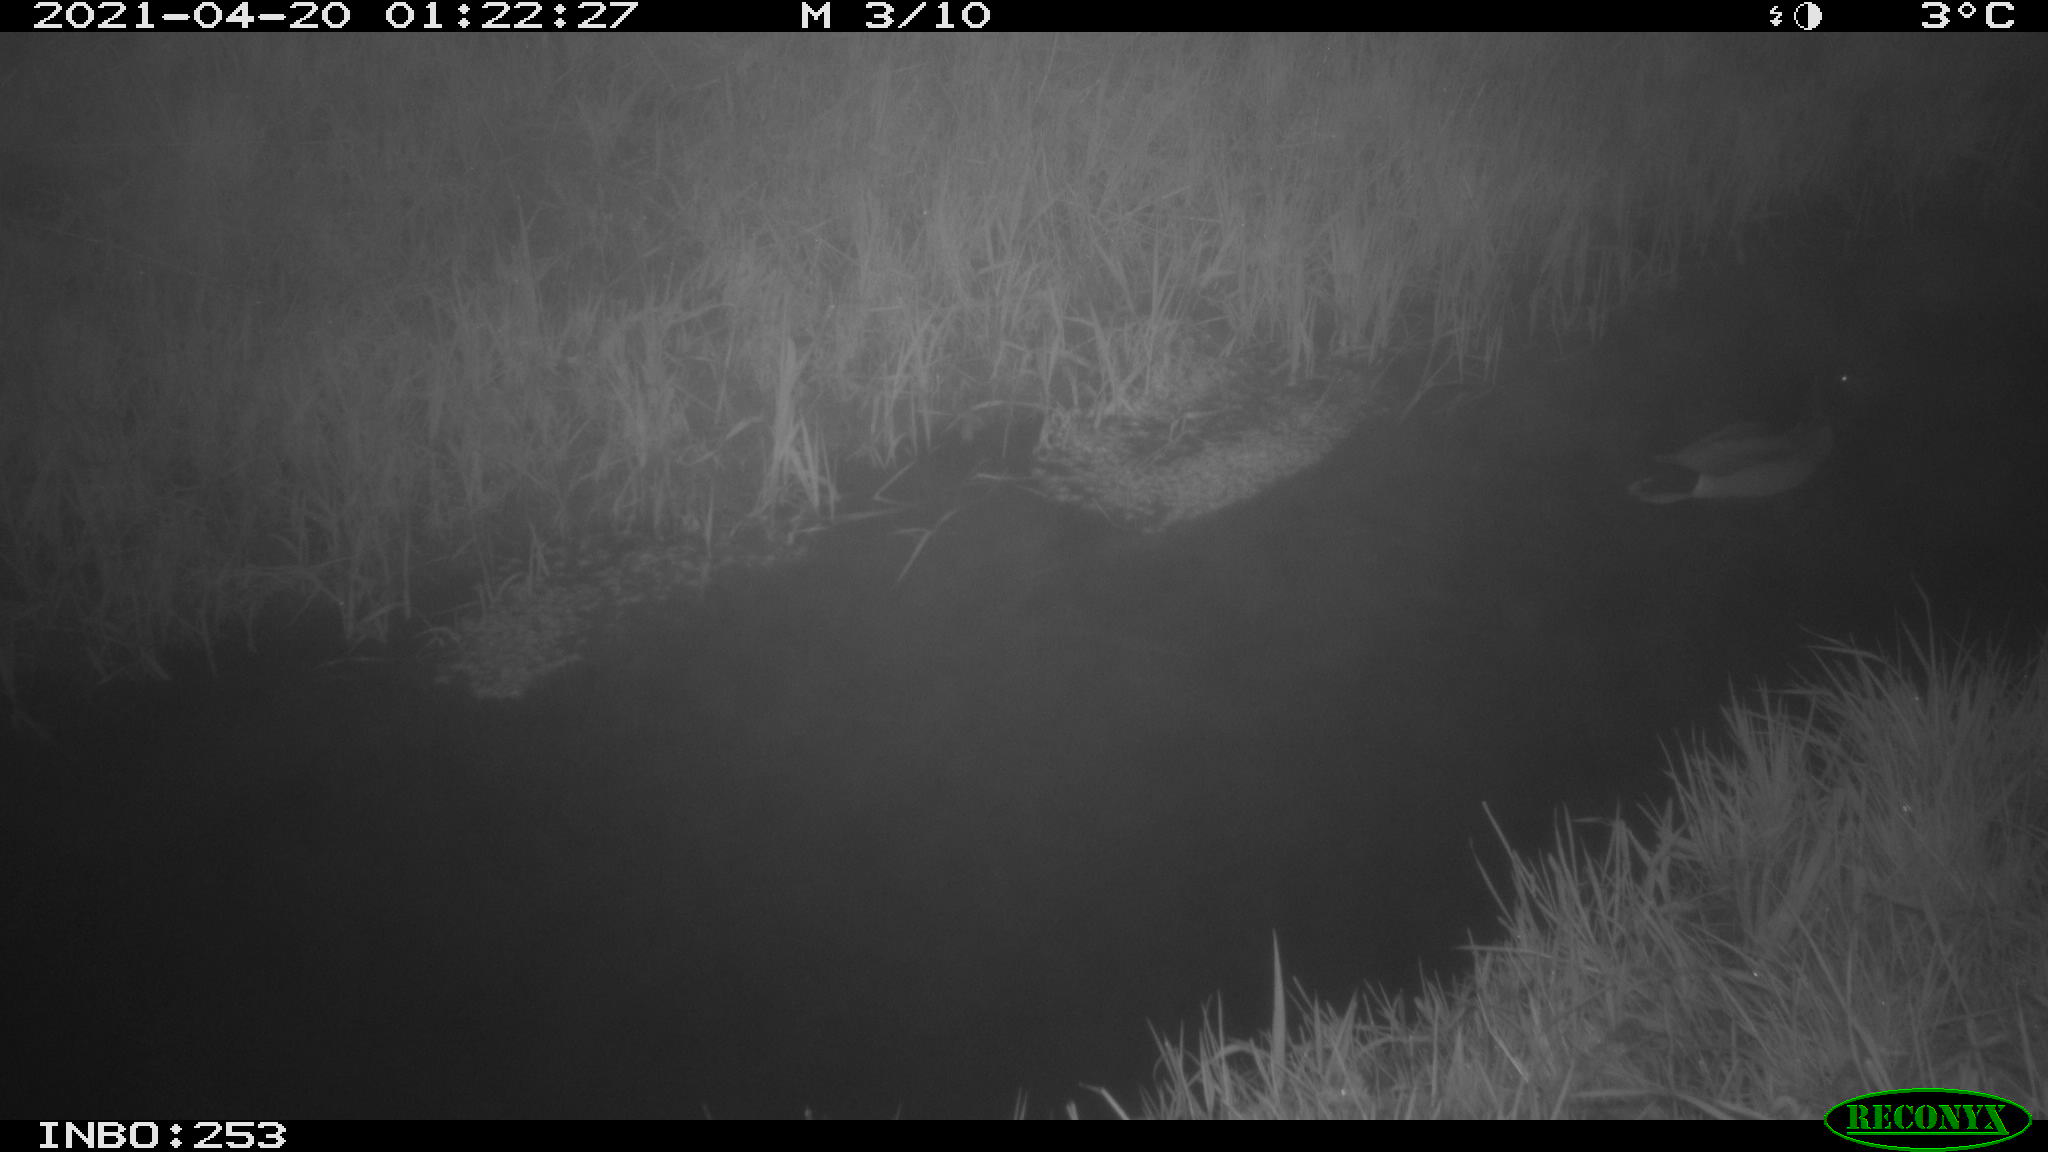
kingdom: Animalia
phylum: Chordata
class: Aves
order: Anseriformes
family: Anatidae
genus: Anas
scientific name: Anas platyrhynchos
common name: Mallard
